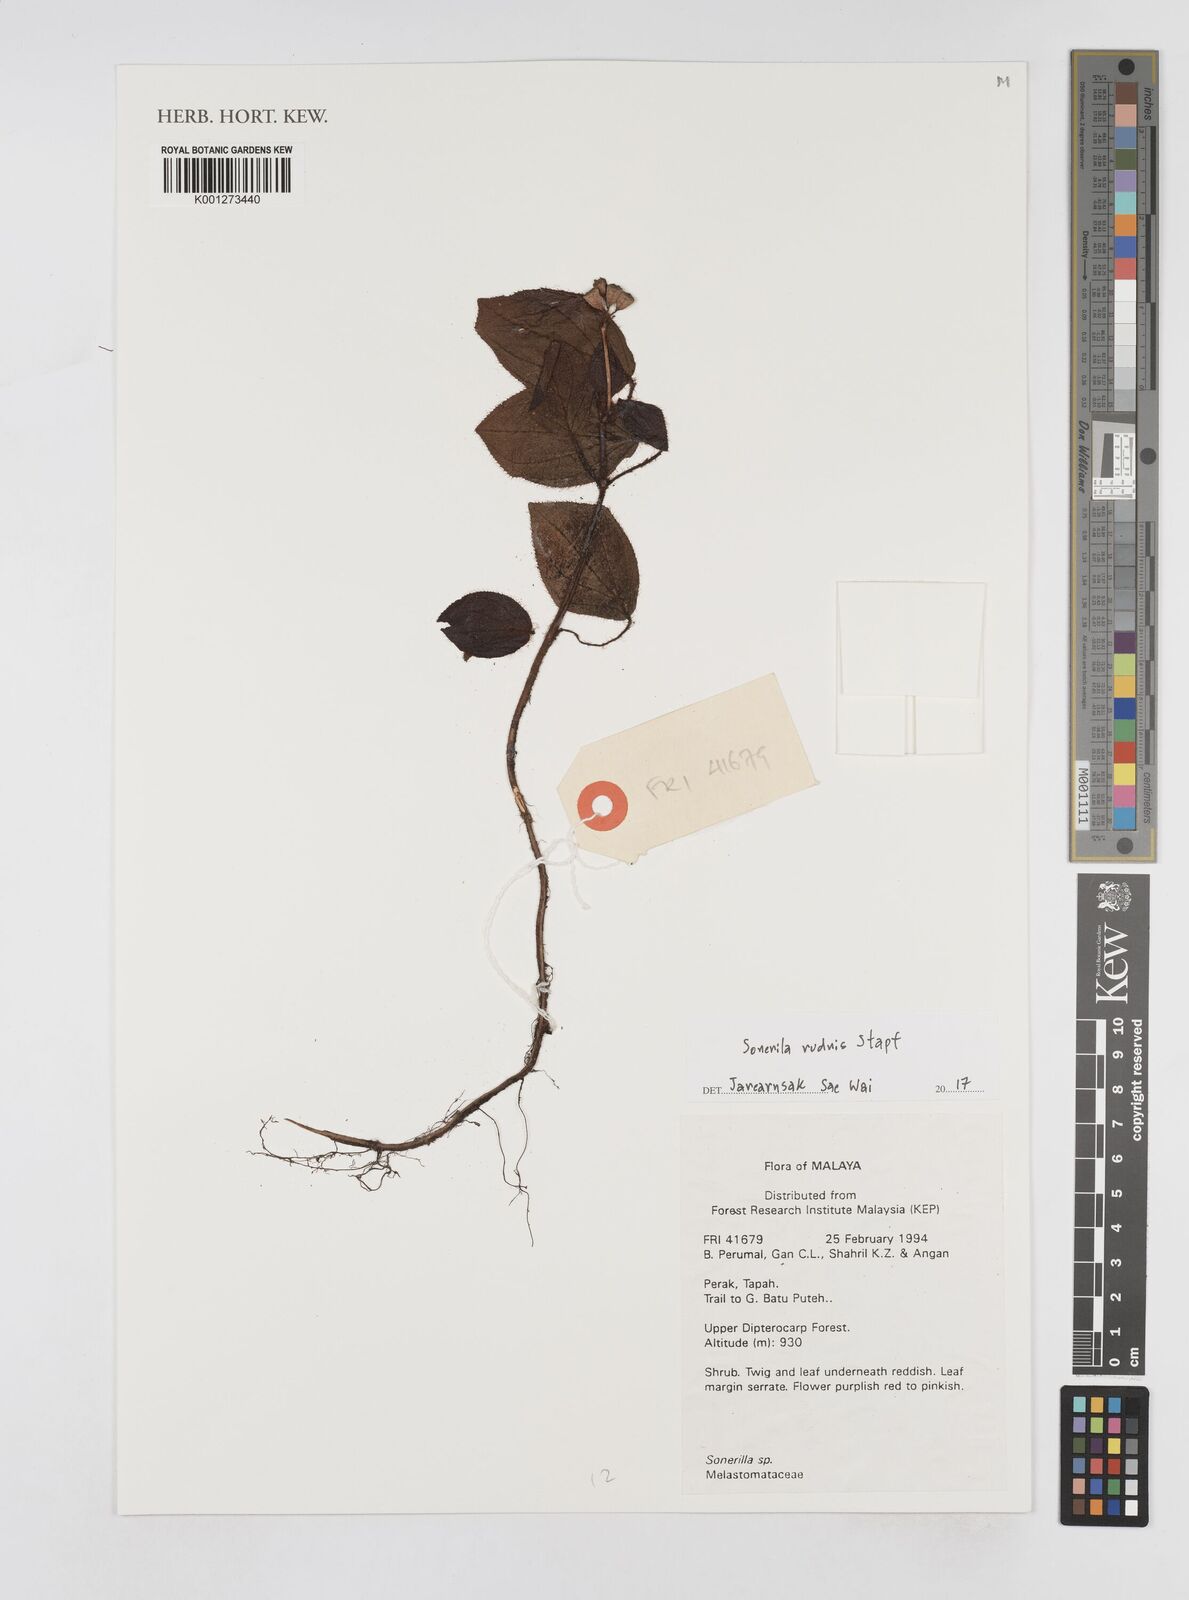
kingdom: Plantae
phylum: Tracheophyta
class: Magnoliopsida
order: Myrtales
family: Melastomataceae
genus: Sonerila
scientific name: Sonerila rudis
